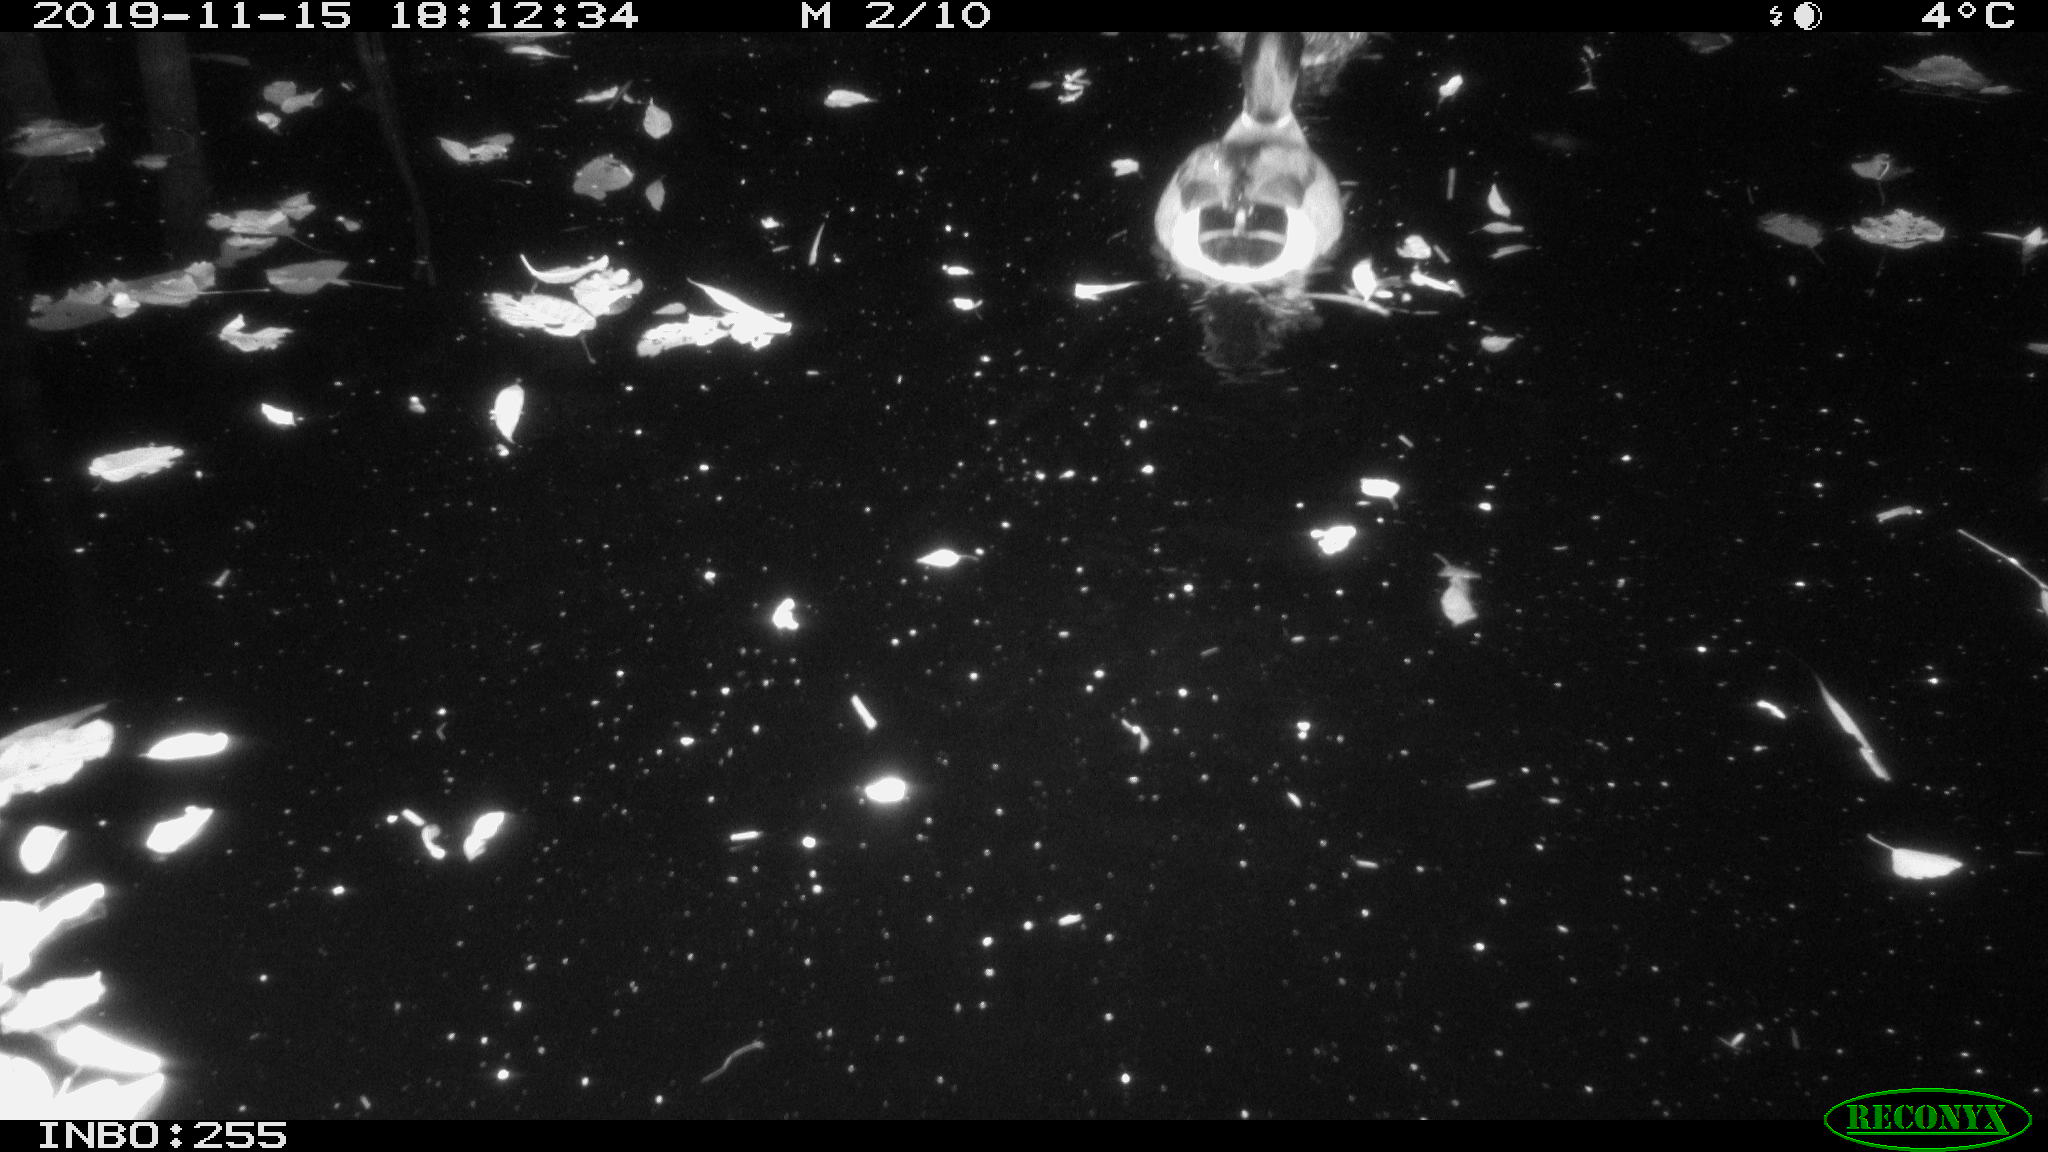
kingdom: Animalia
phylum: Chordata
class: Aves
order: Anseriformes
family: Anatidae
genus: Anas
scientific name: Anas platyrhynchos
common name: Mallard
